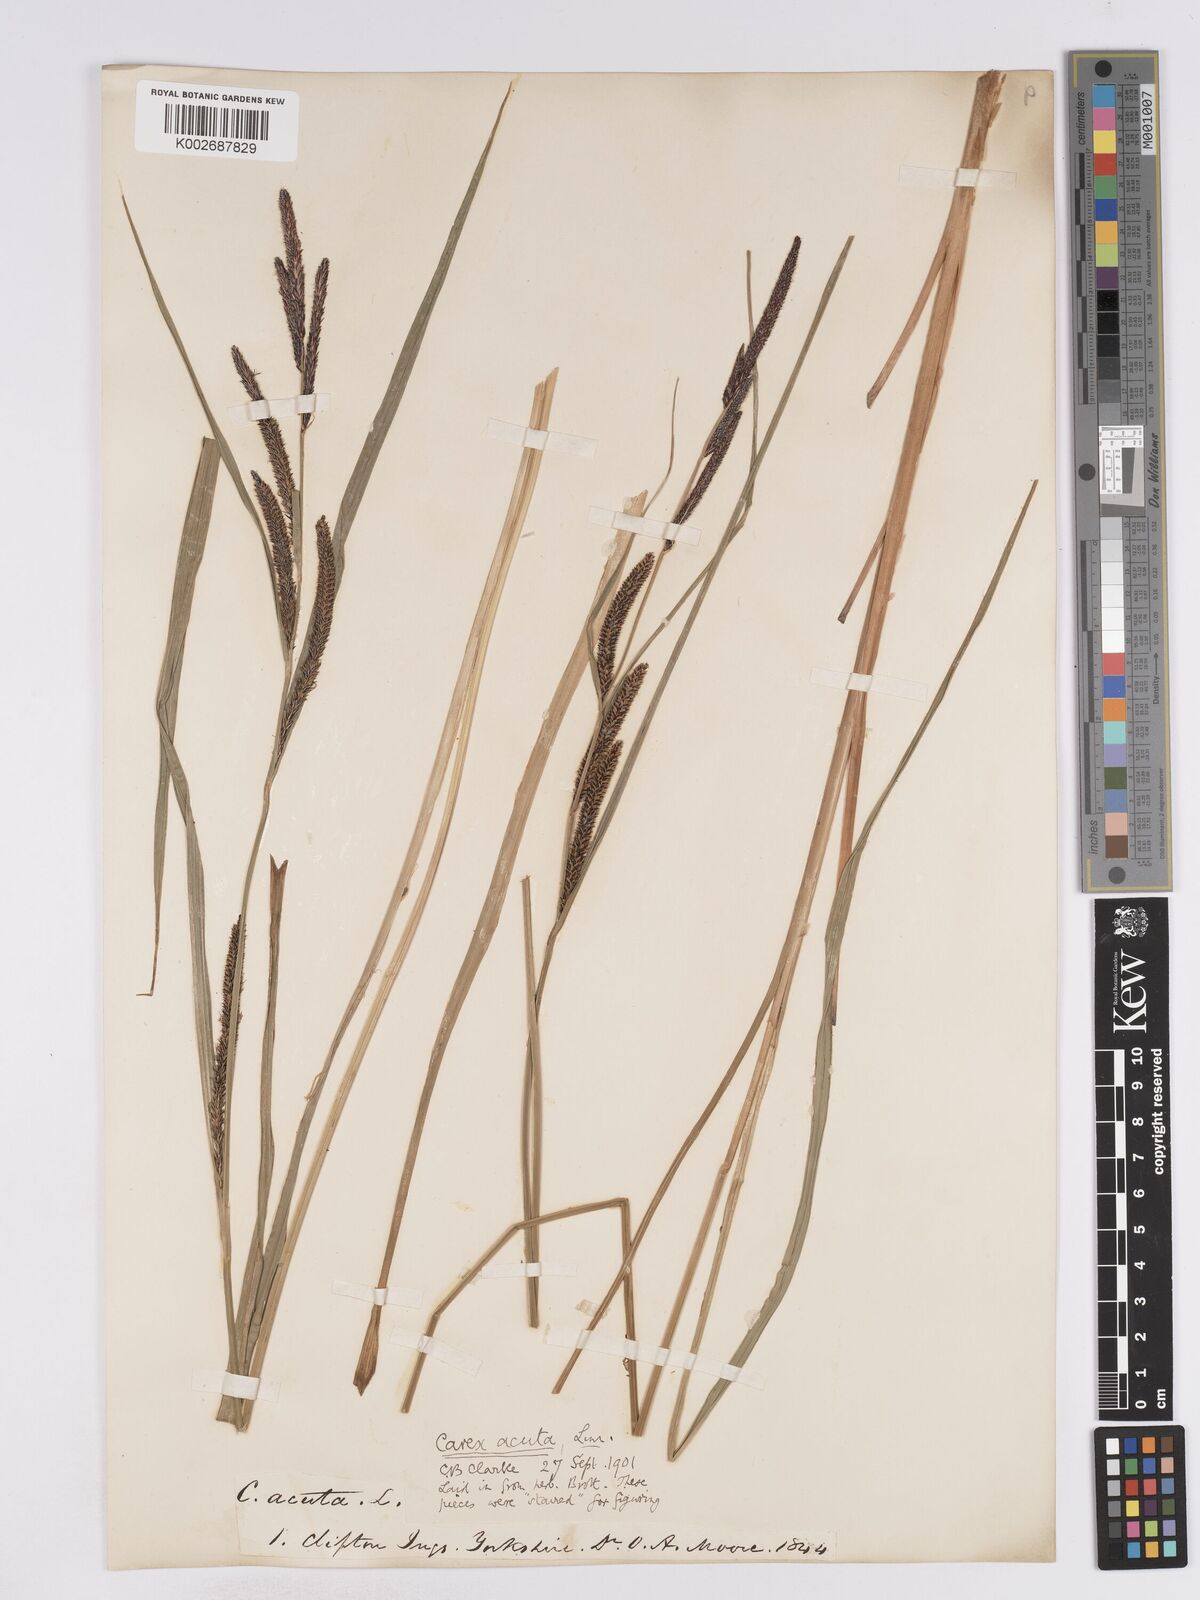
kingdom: Plantae
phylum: Tracheophyta
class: Liliopsida
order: Poales
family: Cyperaceae
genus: Carex
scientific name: Carex acuta
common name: Slender tufted-sedge
